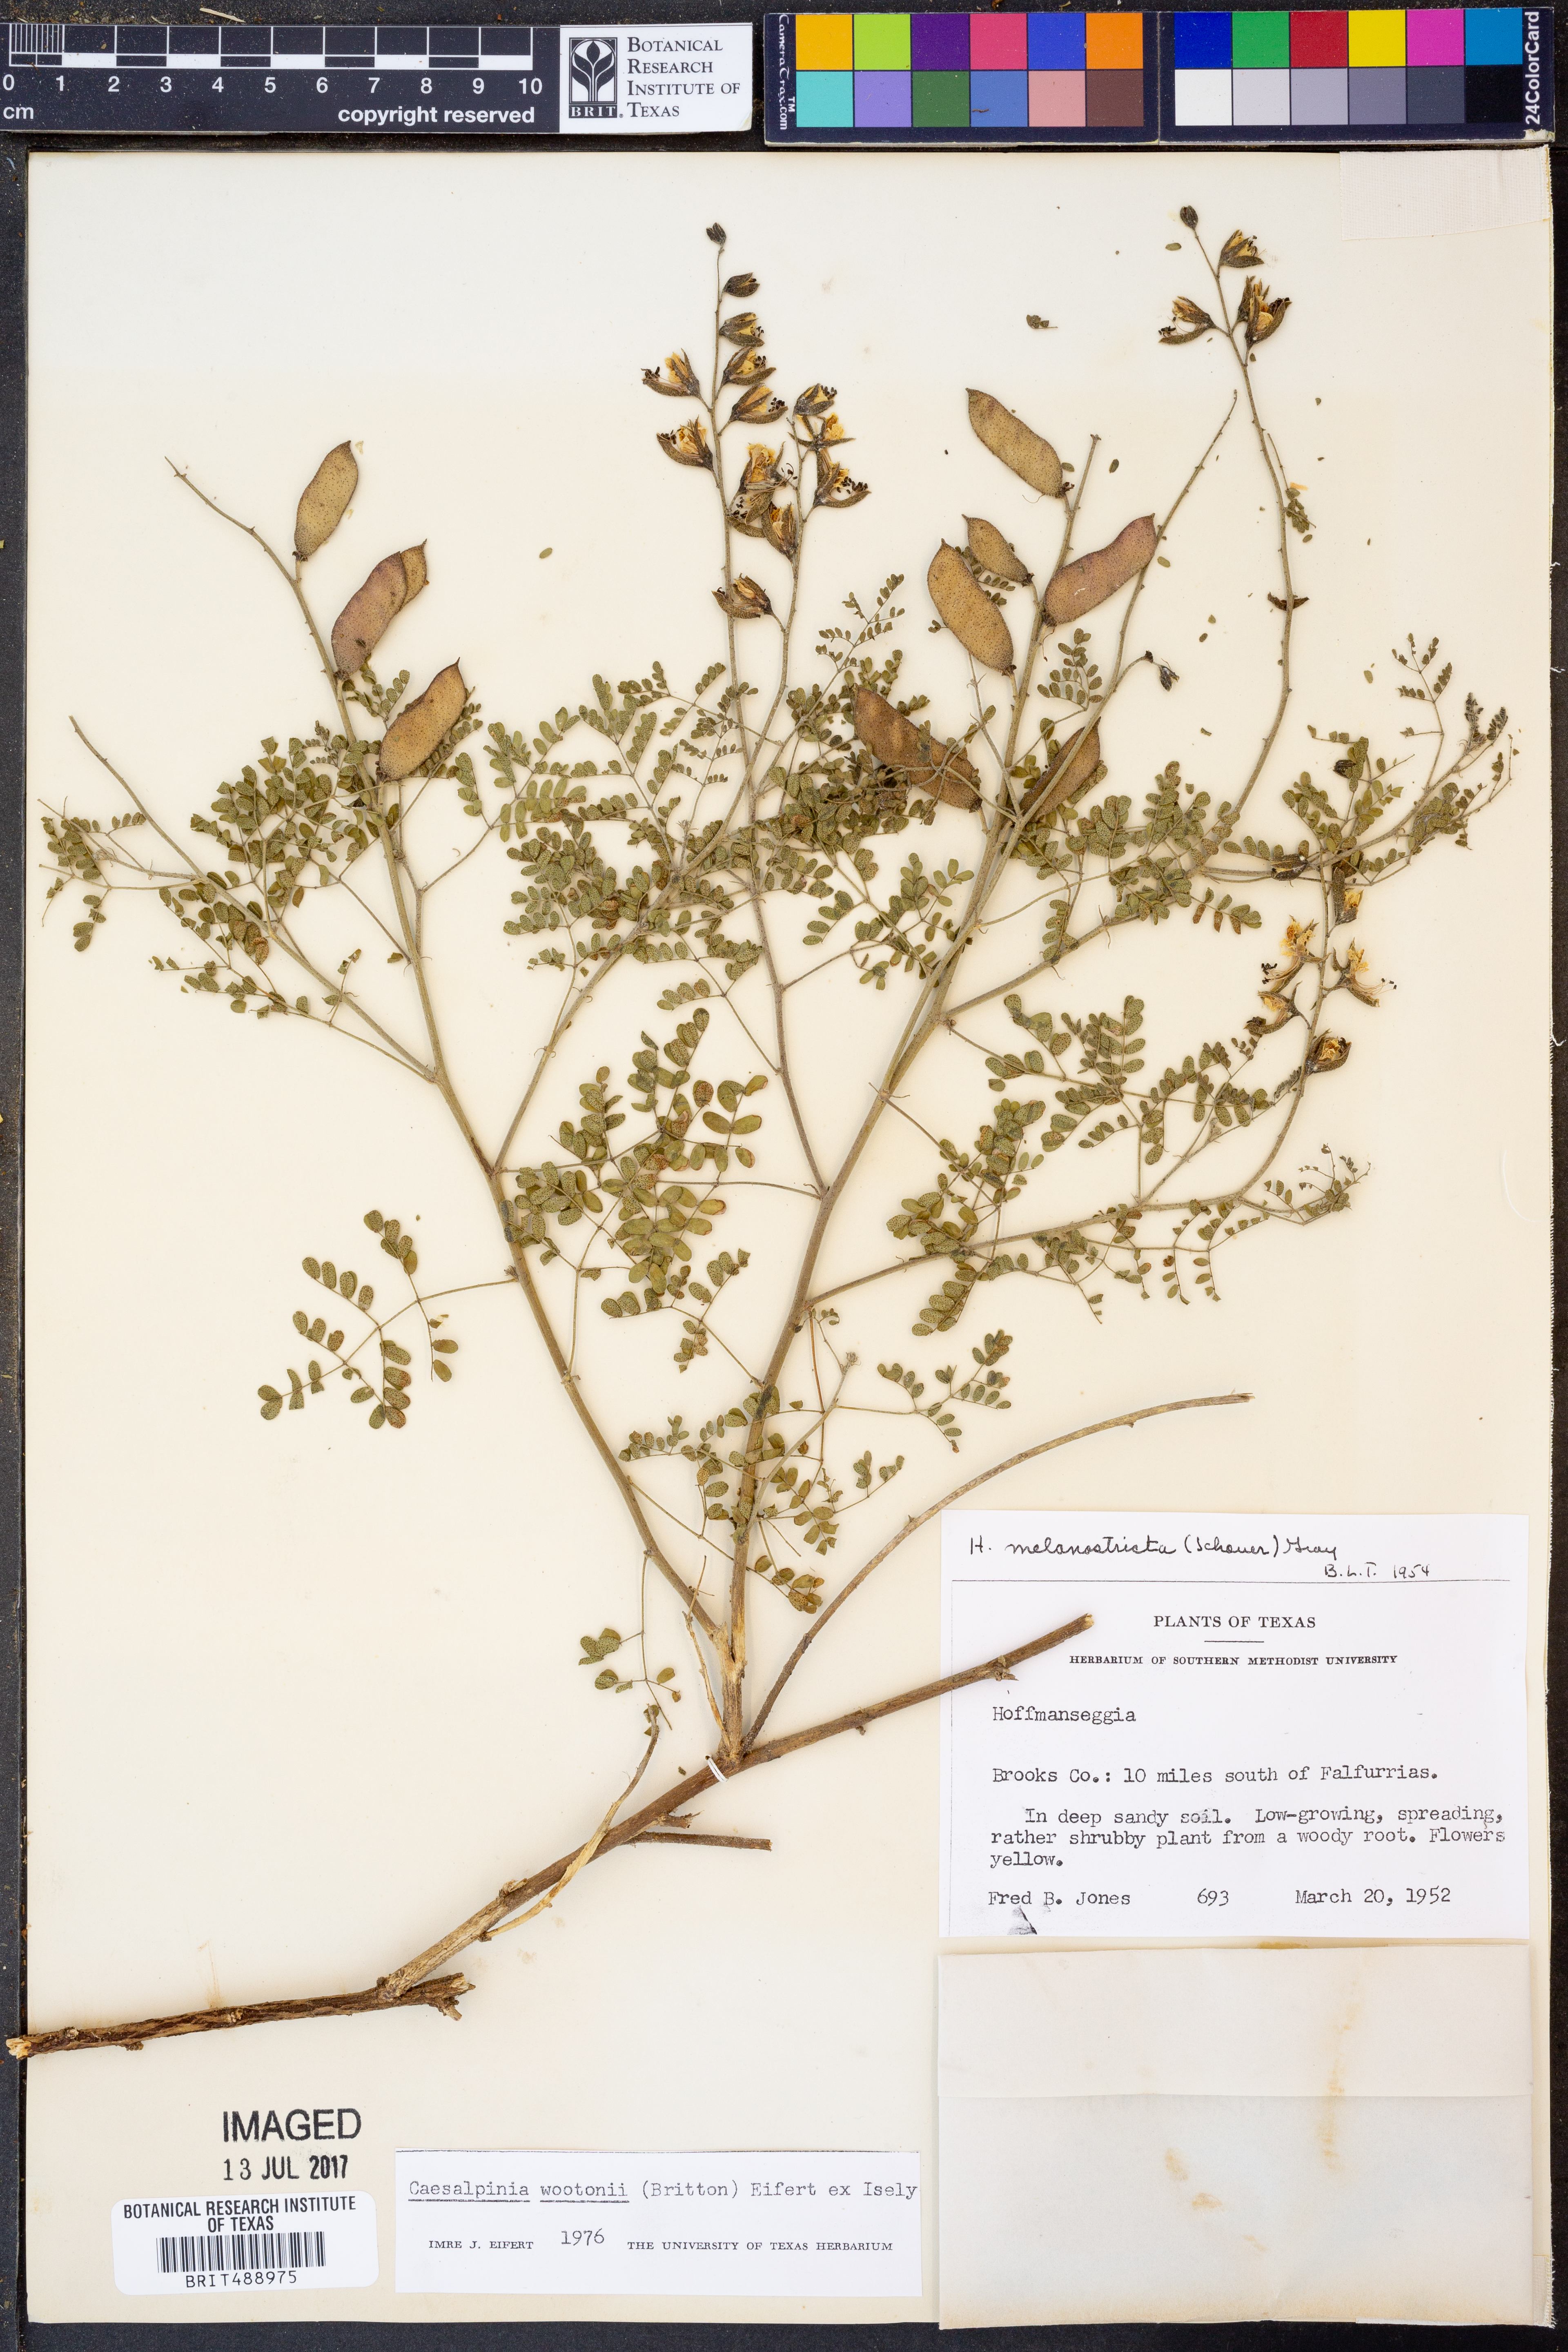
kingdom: Plantae
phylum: Tracheophyta
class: Magnoliopsida
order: Fabales
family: Fabaceae
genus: Pomaria
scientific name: Pomaria wootonii
